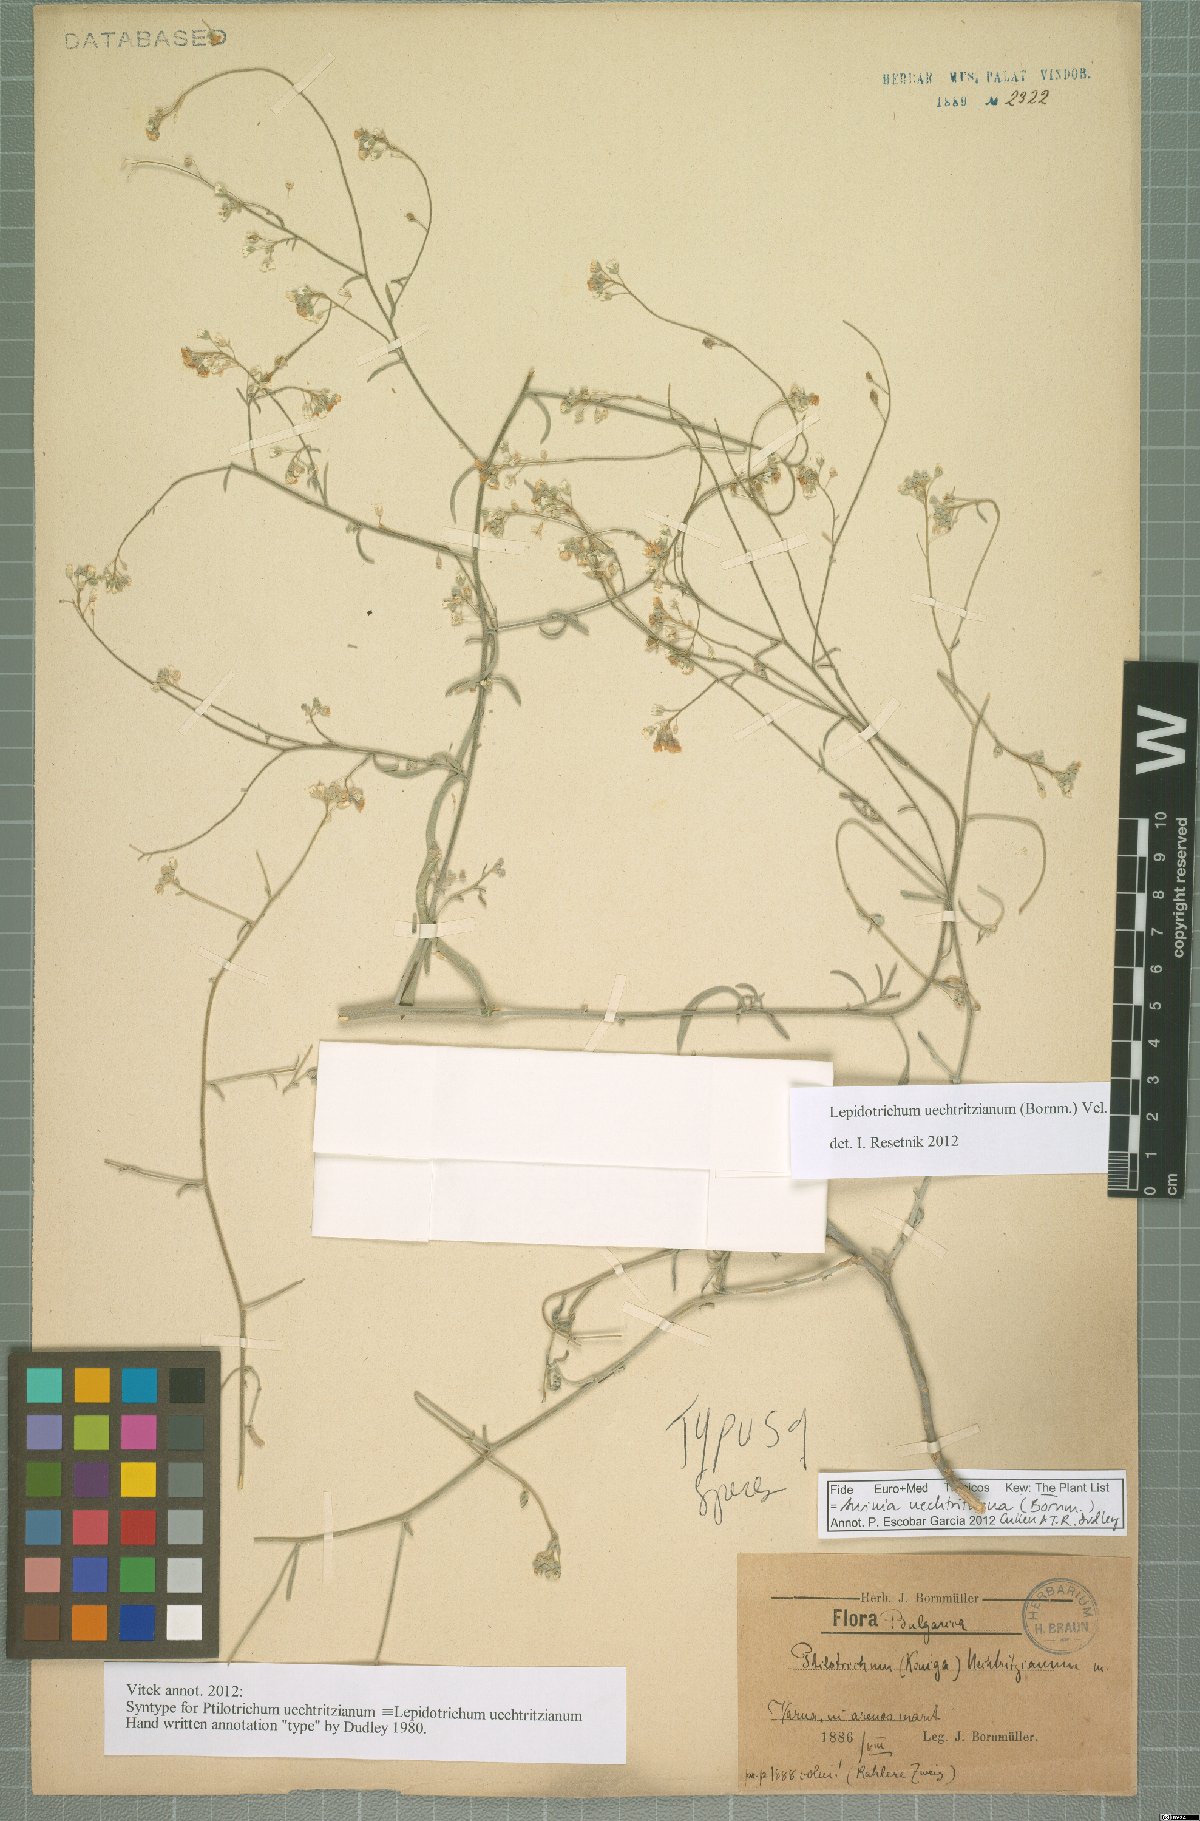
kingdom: Plantae
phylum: Tracheophyta
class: Magnoliopsida
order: Brassicales
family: Brassicaceae
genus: Lepidotrichum
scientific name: Lepidotrichum uechtritzianum
